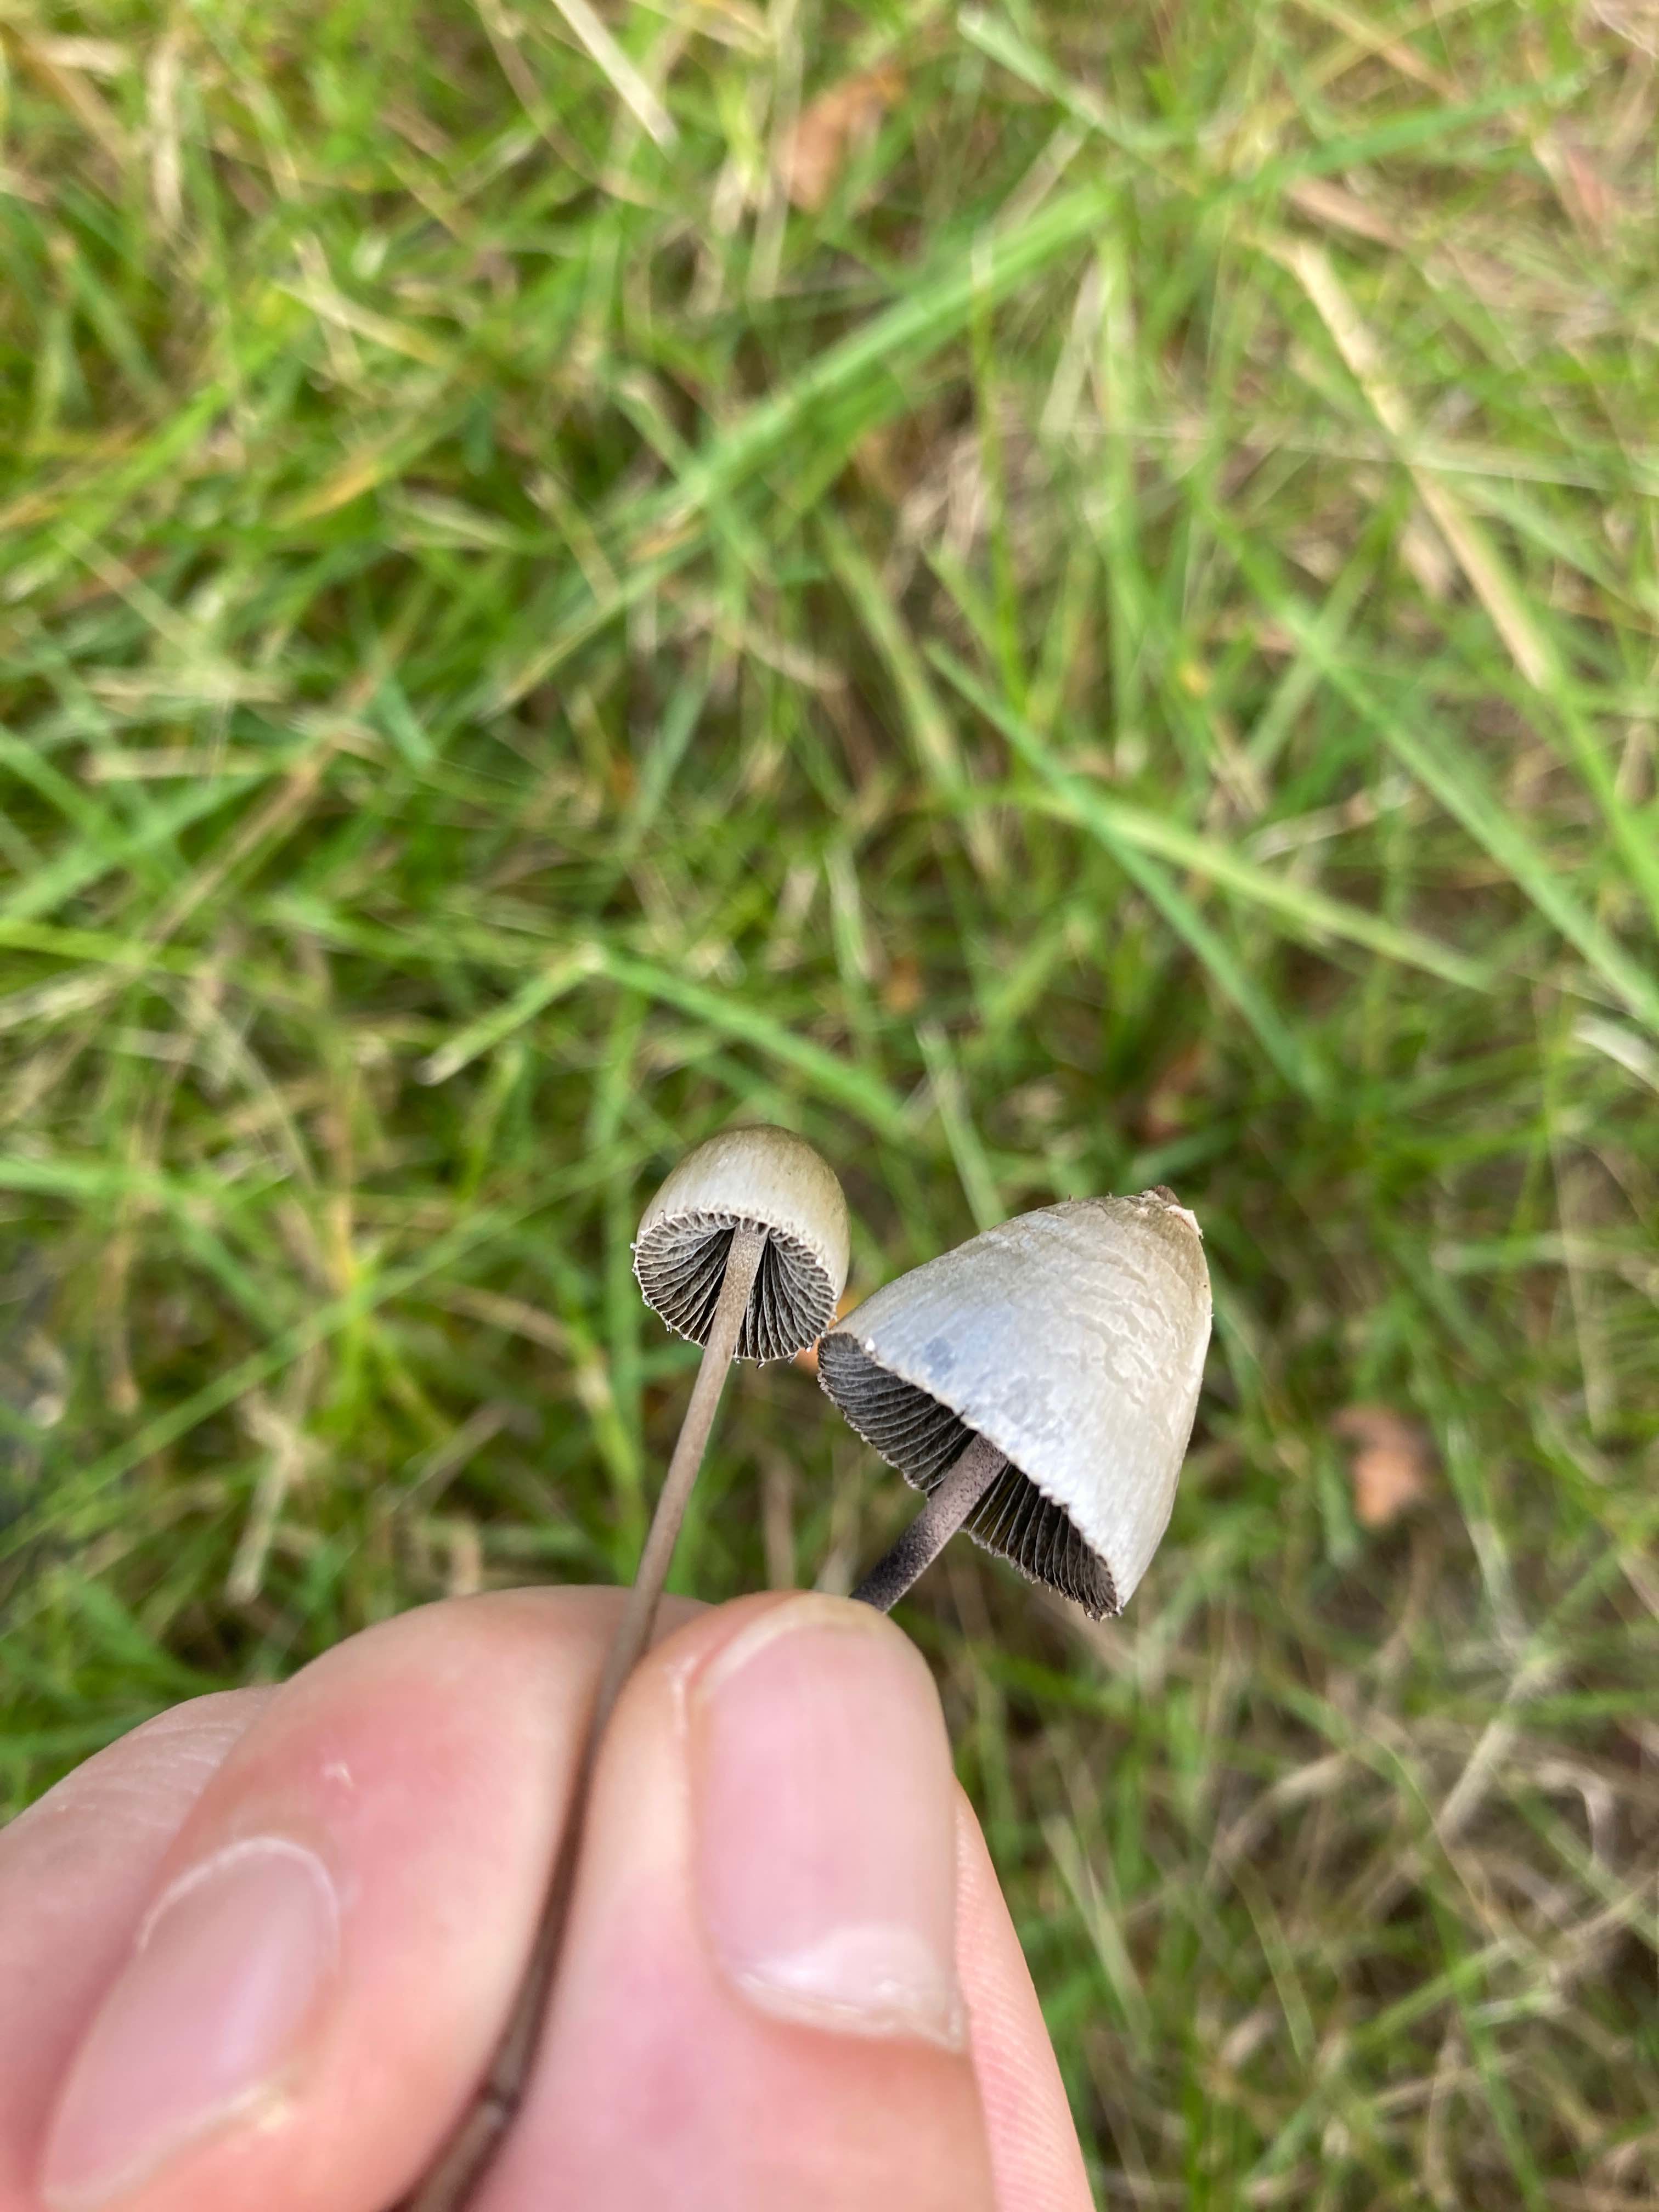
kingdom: Fungi
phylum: Basidiomycota
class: Agaricomycetes
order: Agaricales
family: Bolbitiaceae
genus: Panaeolus
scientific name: Panaeolus papilionaceus
